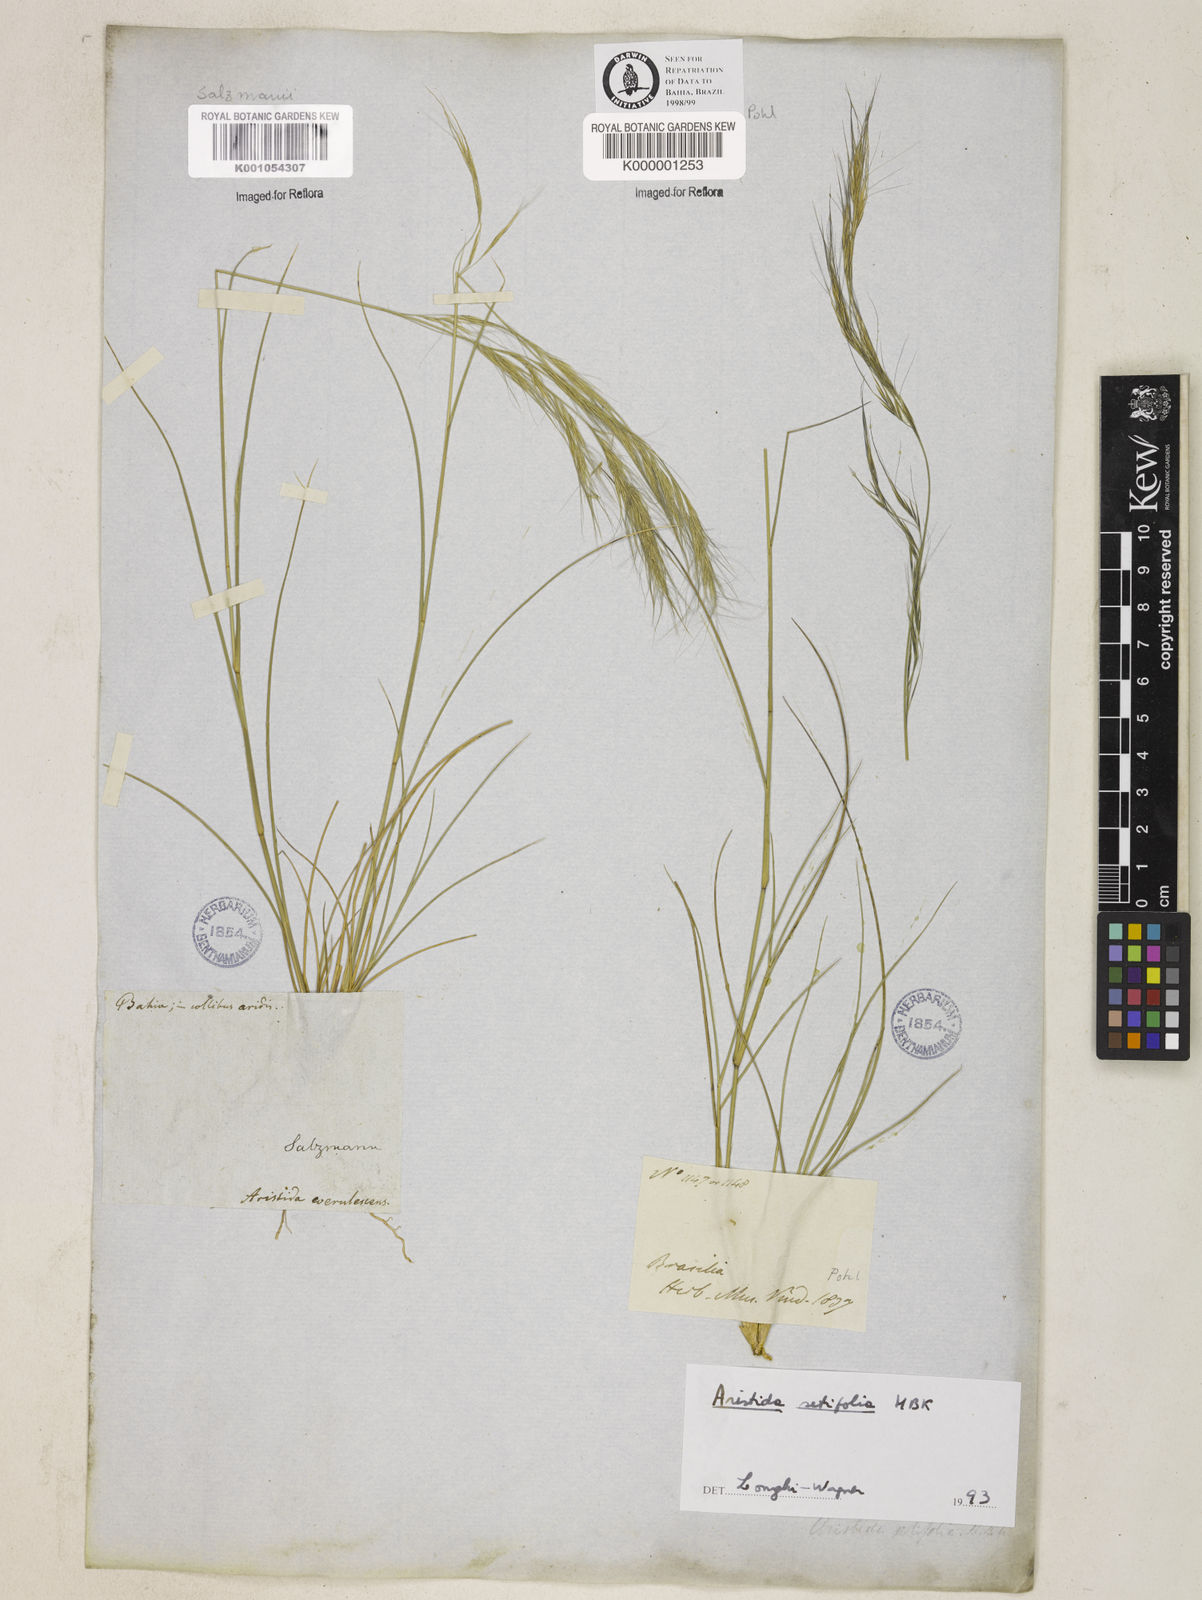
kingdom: Plantae
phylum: Tracheophyta
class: Liliopsida
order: Poales
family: Poaceae
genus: Aristida
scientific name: Aristida setifolia
